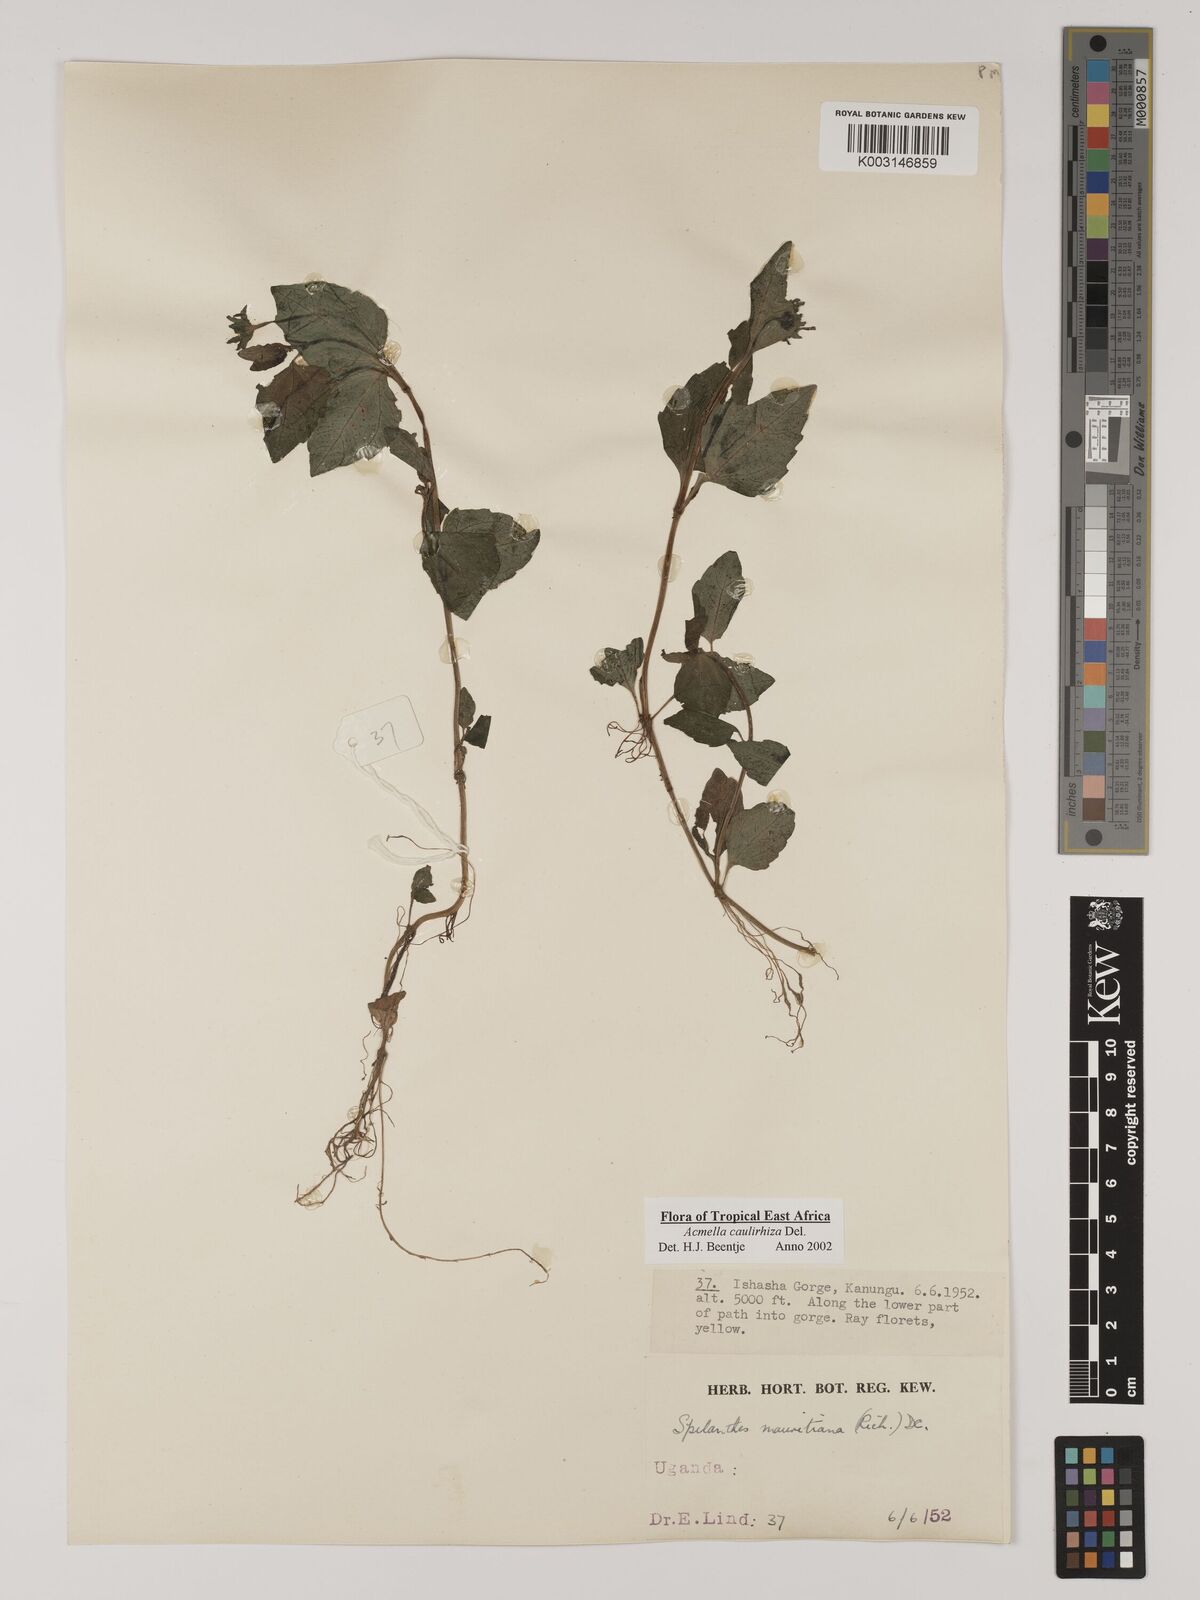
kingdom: Plantae
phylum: Tracheophyta
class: Magnoliopsida
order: Asterales
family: Asteraceae
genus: Acmella
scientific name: Acmella caulirhiza
